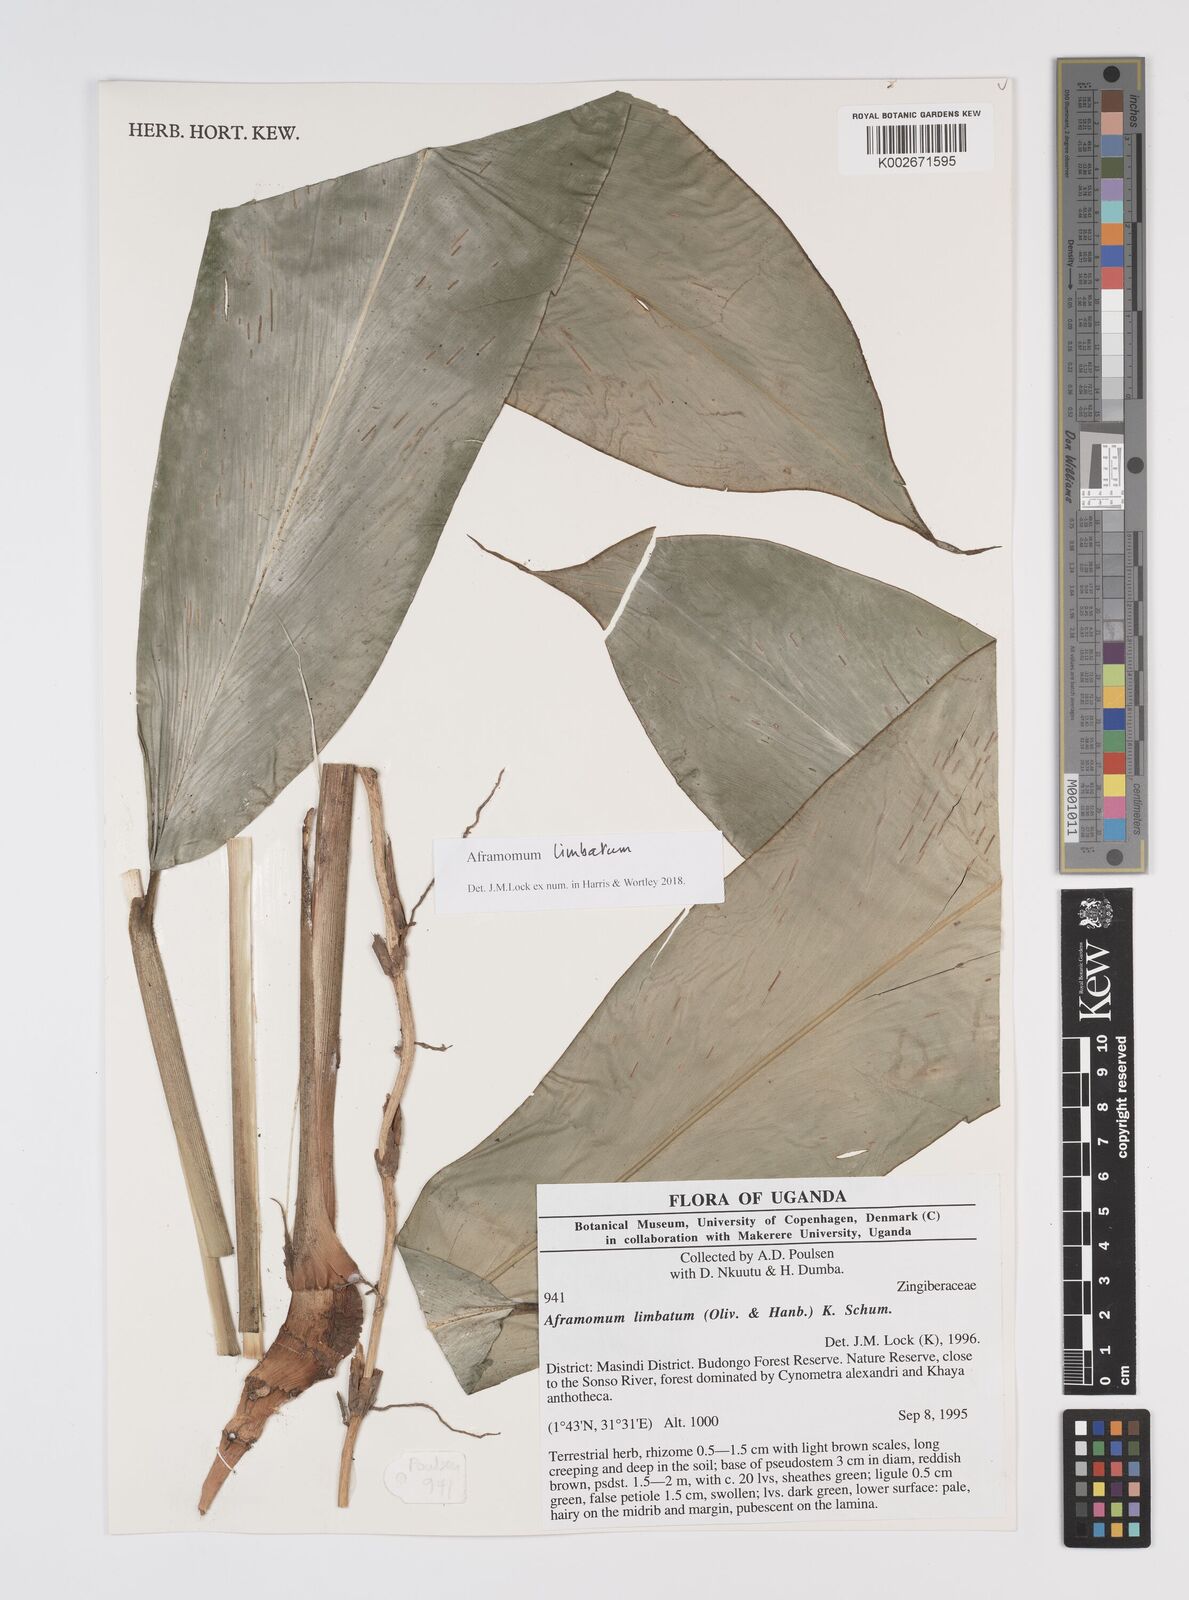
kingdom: Plantae
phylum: Tracheophyta
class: Liliopsida
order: Zingiberales
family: Zingiberaceae
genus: Aframomum
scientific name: Aframomum limbatum
